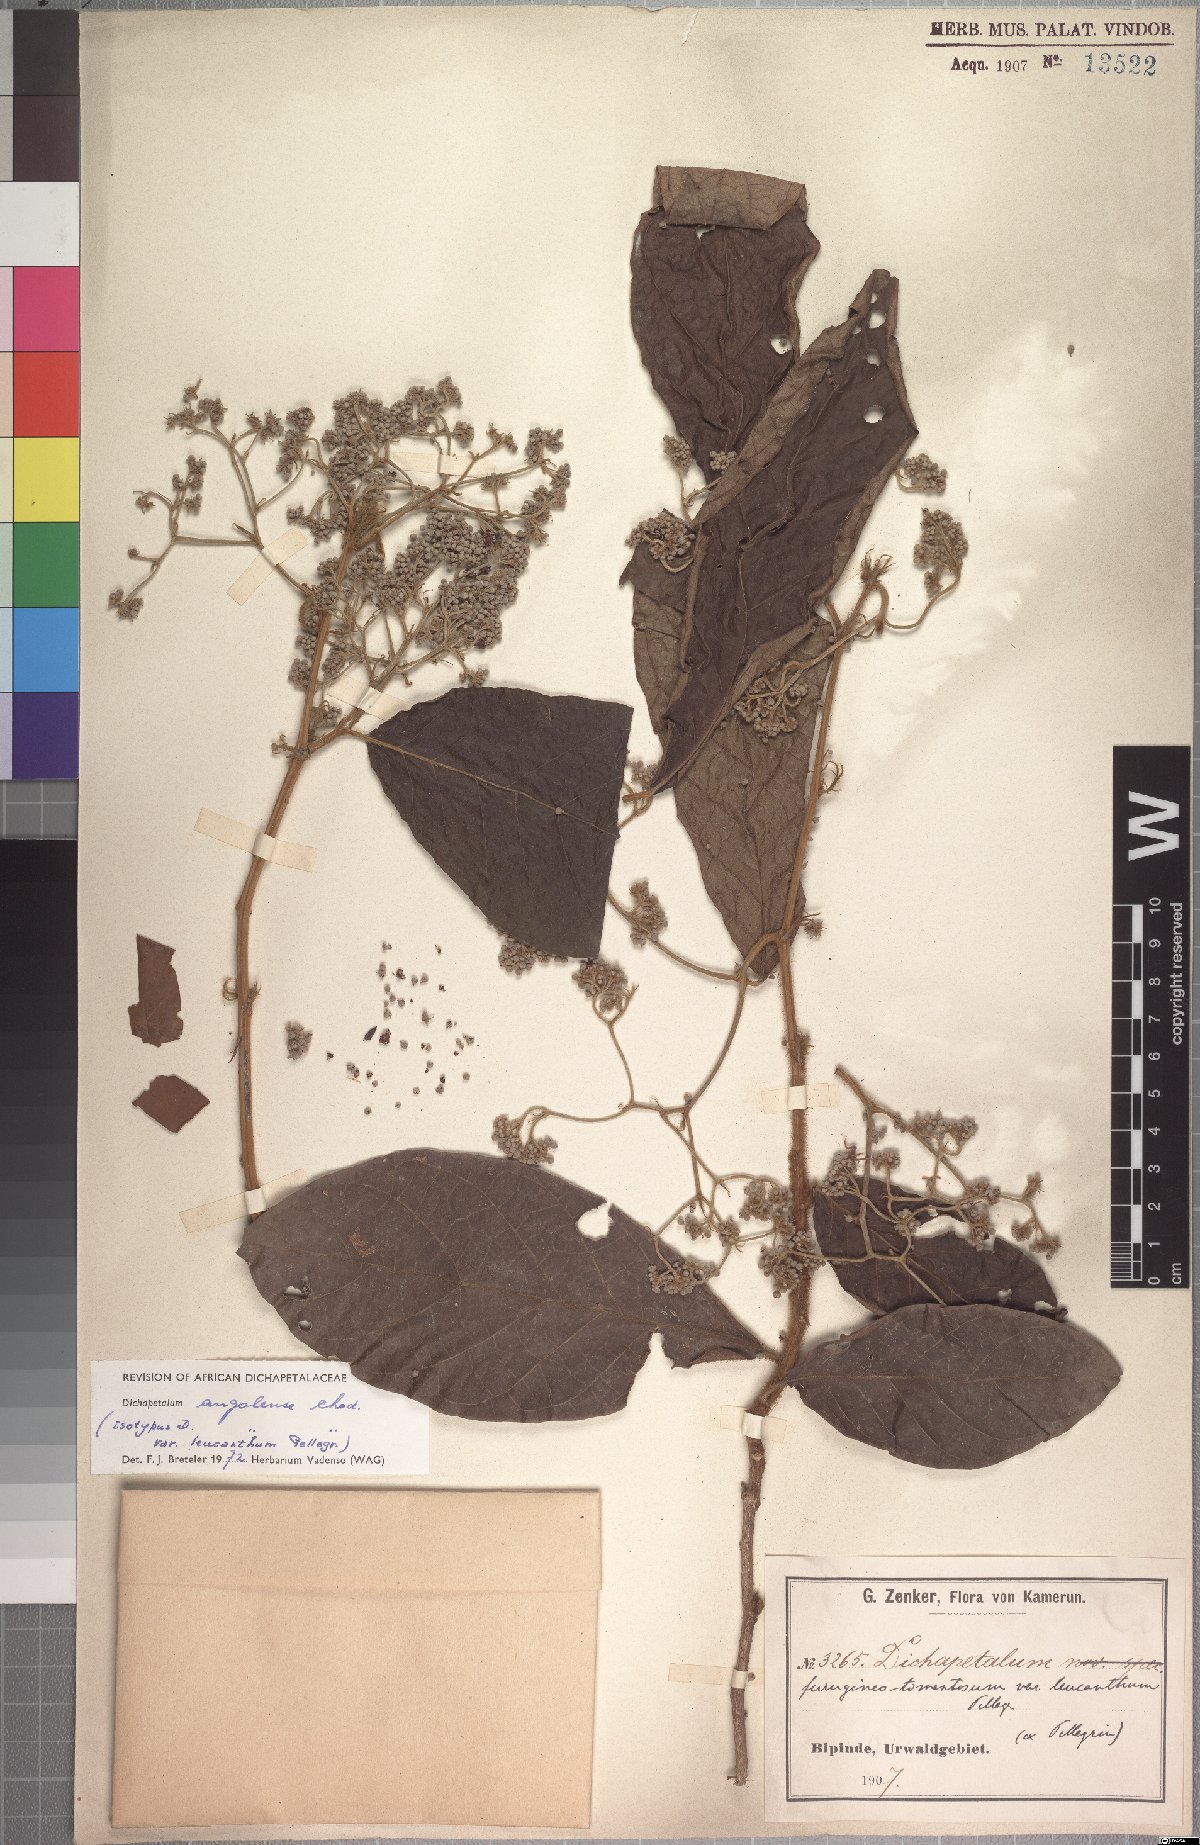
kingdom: Plantae
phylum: Tracheophyta
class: Magnoliopsida
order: Malpighiales
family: Dichapetalaceae
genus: Dichapetalum
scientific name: Dichapetalum angolense
